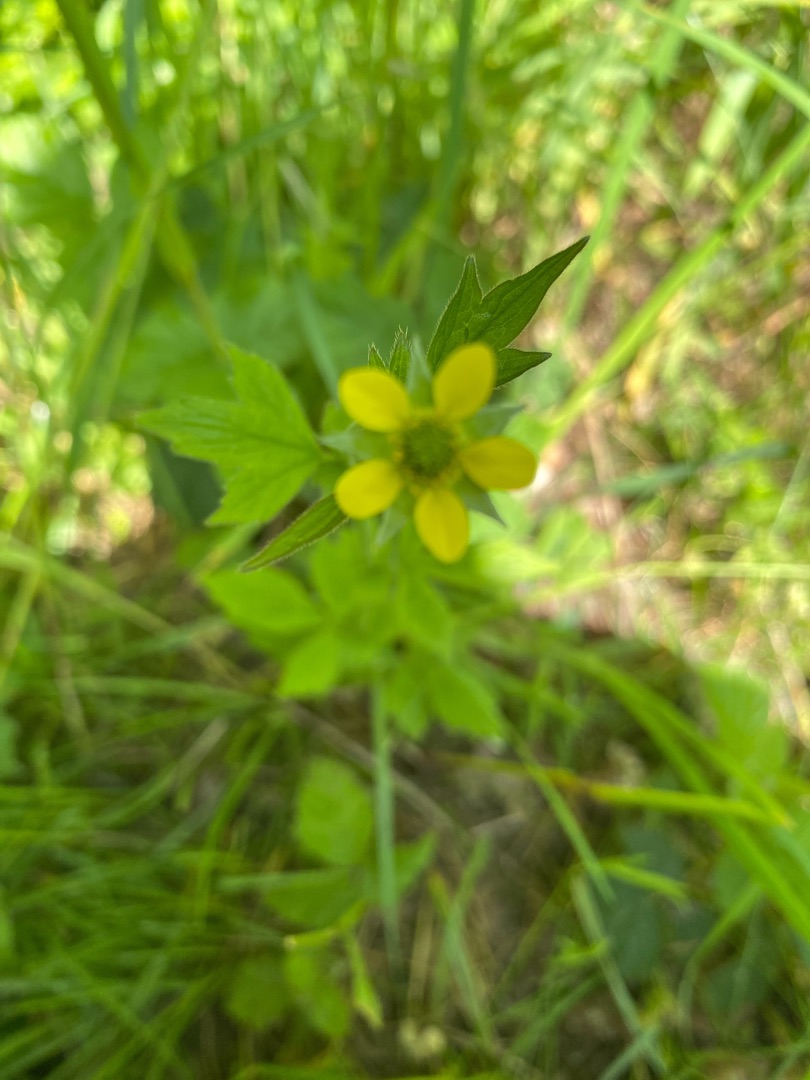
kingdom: Plantae
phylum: Tracheophyta
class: Magnoliopsida
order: Rosales
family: Rosaceae
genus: Geum
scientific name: Geum urbanum
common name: Feber-nellikerod
